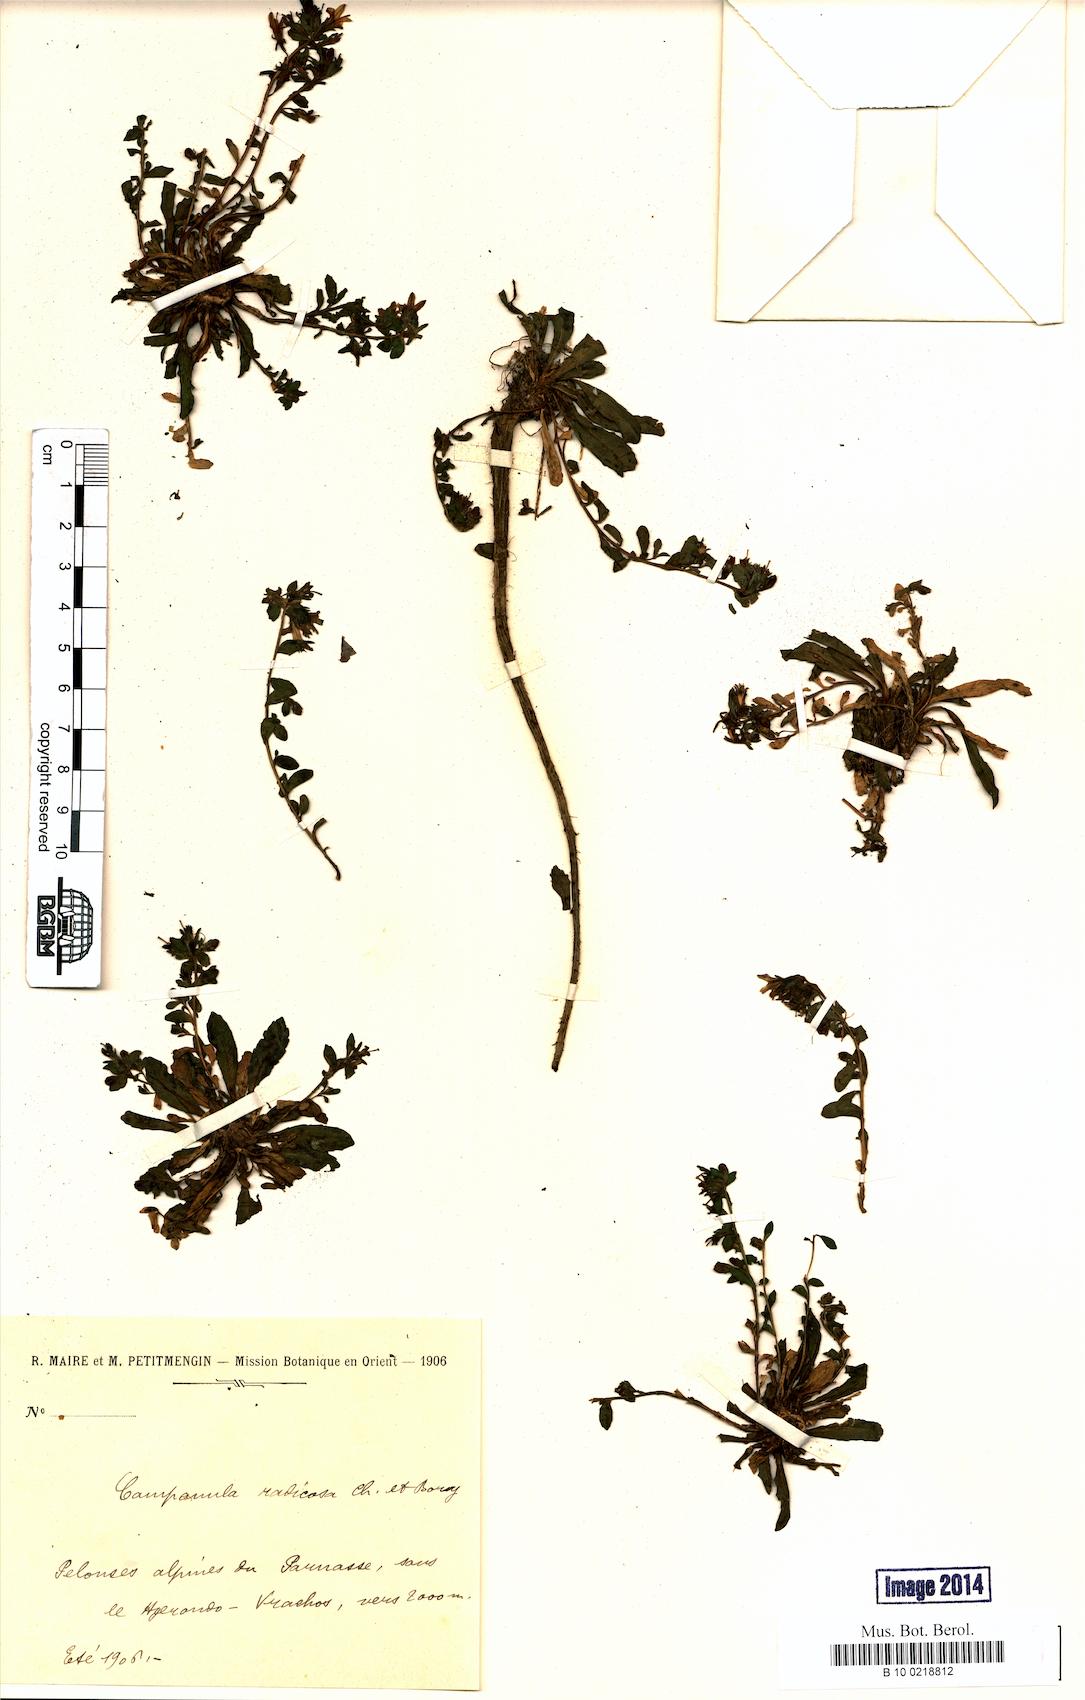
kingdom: Plantae
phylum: Tracheophyta
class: Magnoliopsida
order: Asterales
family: Campanulaceae
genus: Campanula
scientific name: Campanula radicosa
